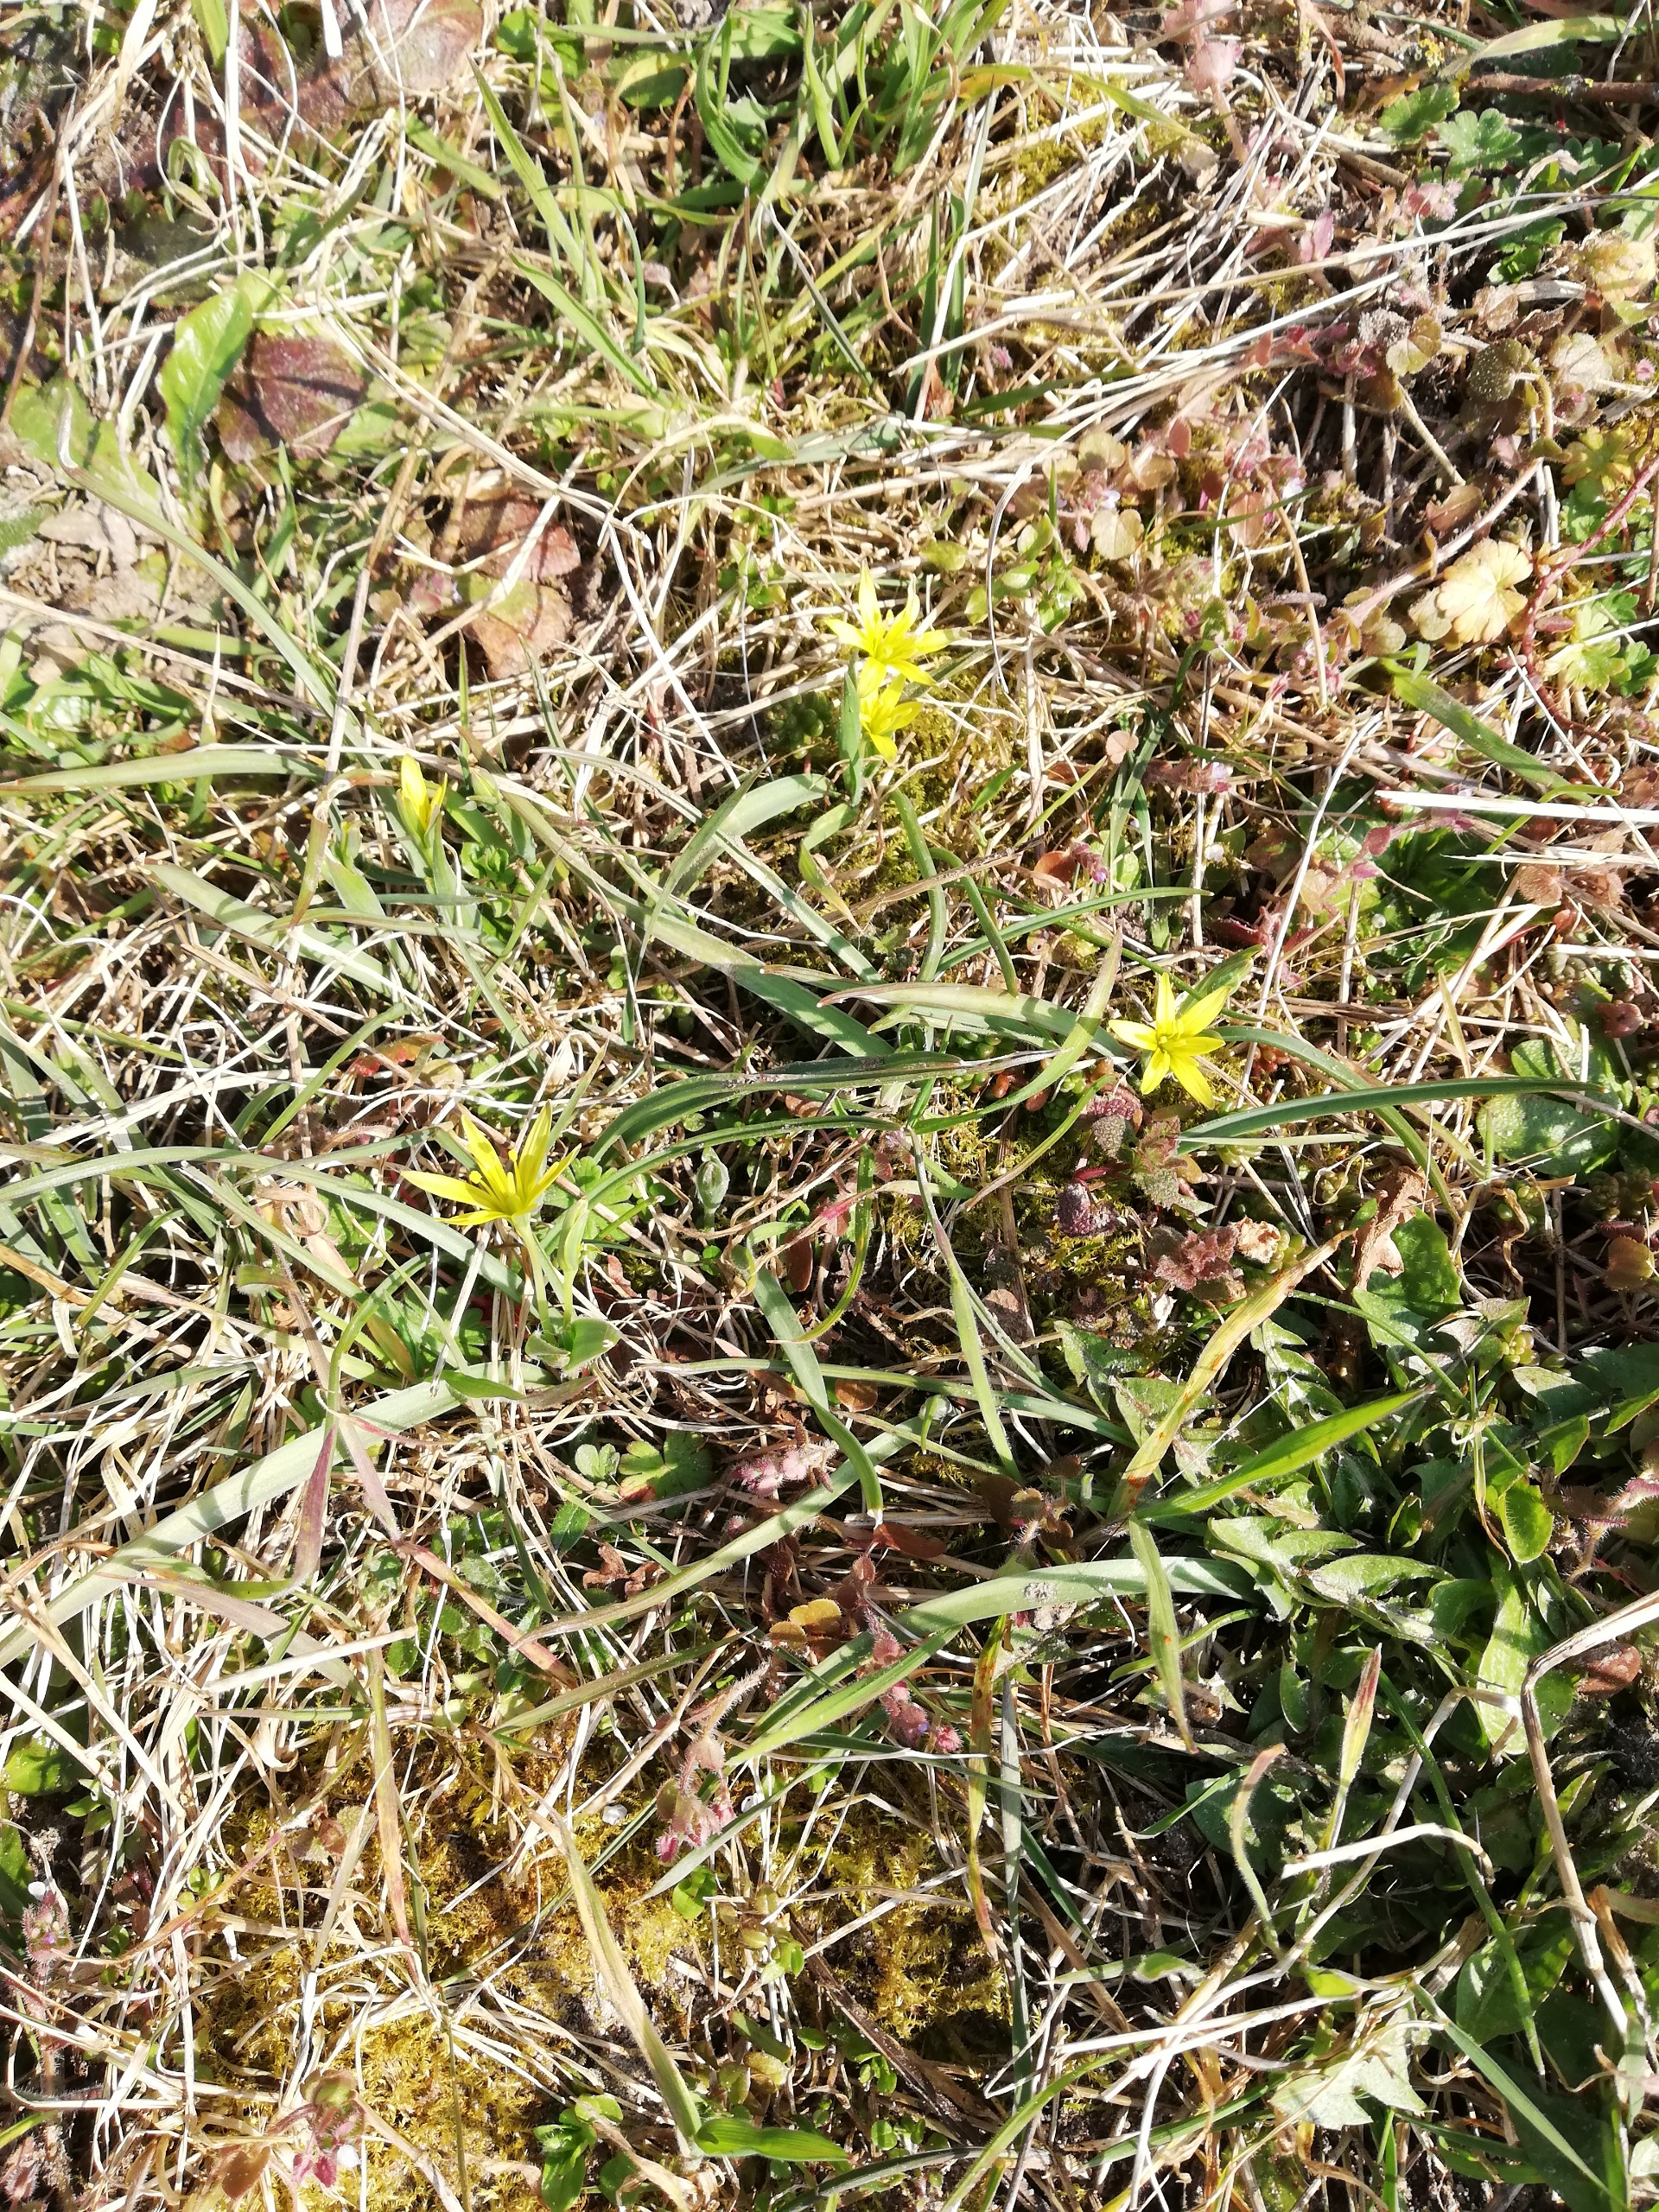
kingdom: Plantae
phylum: Tracheophyta
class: Liliopsida
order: Liliales
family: Liliaceae
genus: Gagea
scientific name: Gagea pratensis
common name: Eng-guldstjerne
